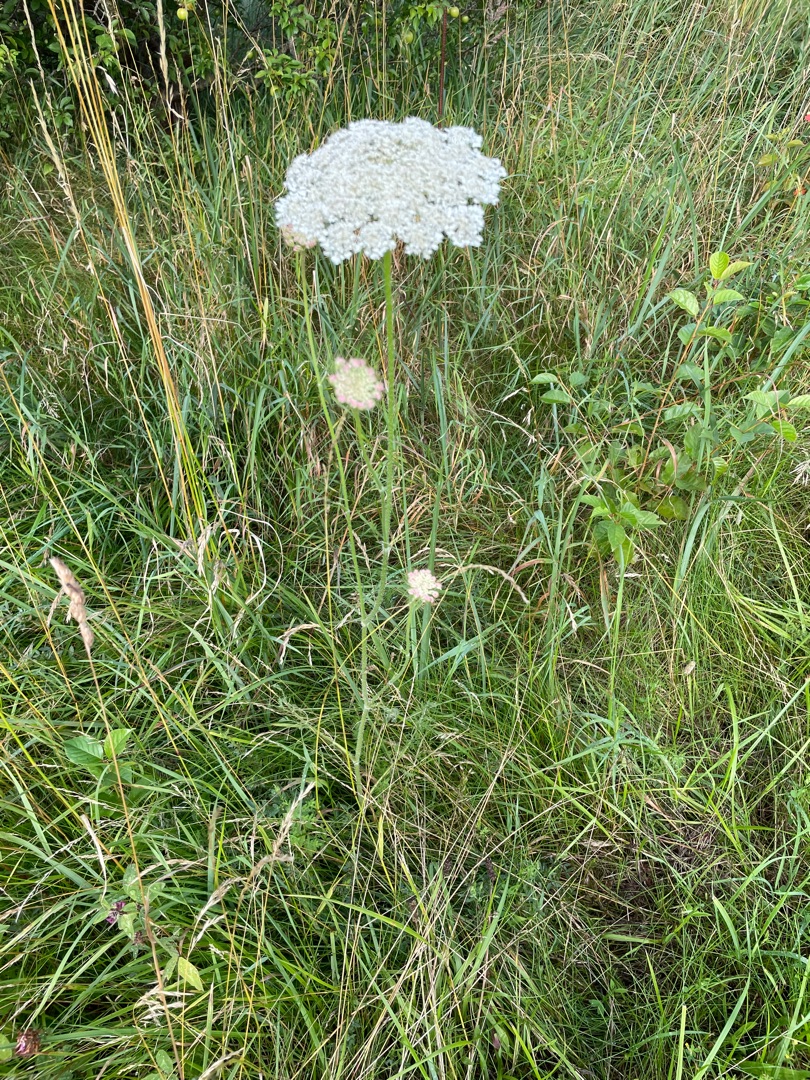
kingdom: Plantae
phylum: Tracheophyta
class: Magnoliopsida
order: Apiales
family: Apiaceae
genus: Daucus
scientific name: Daucus carota
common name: Vild gulerod
